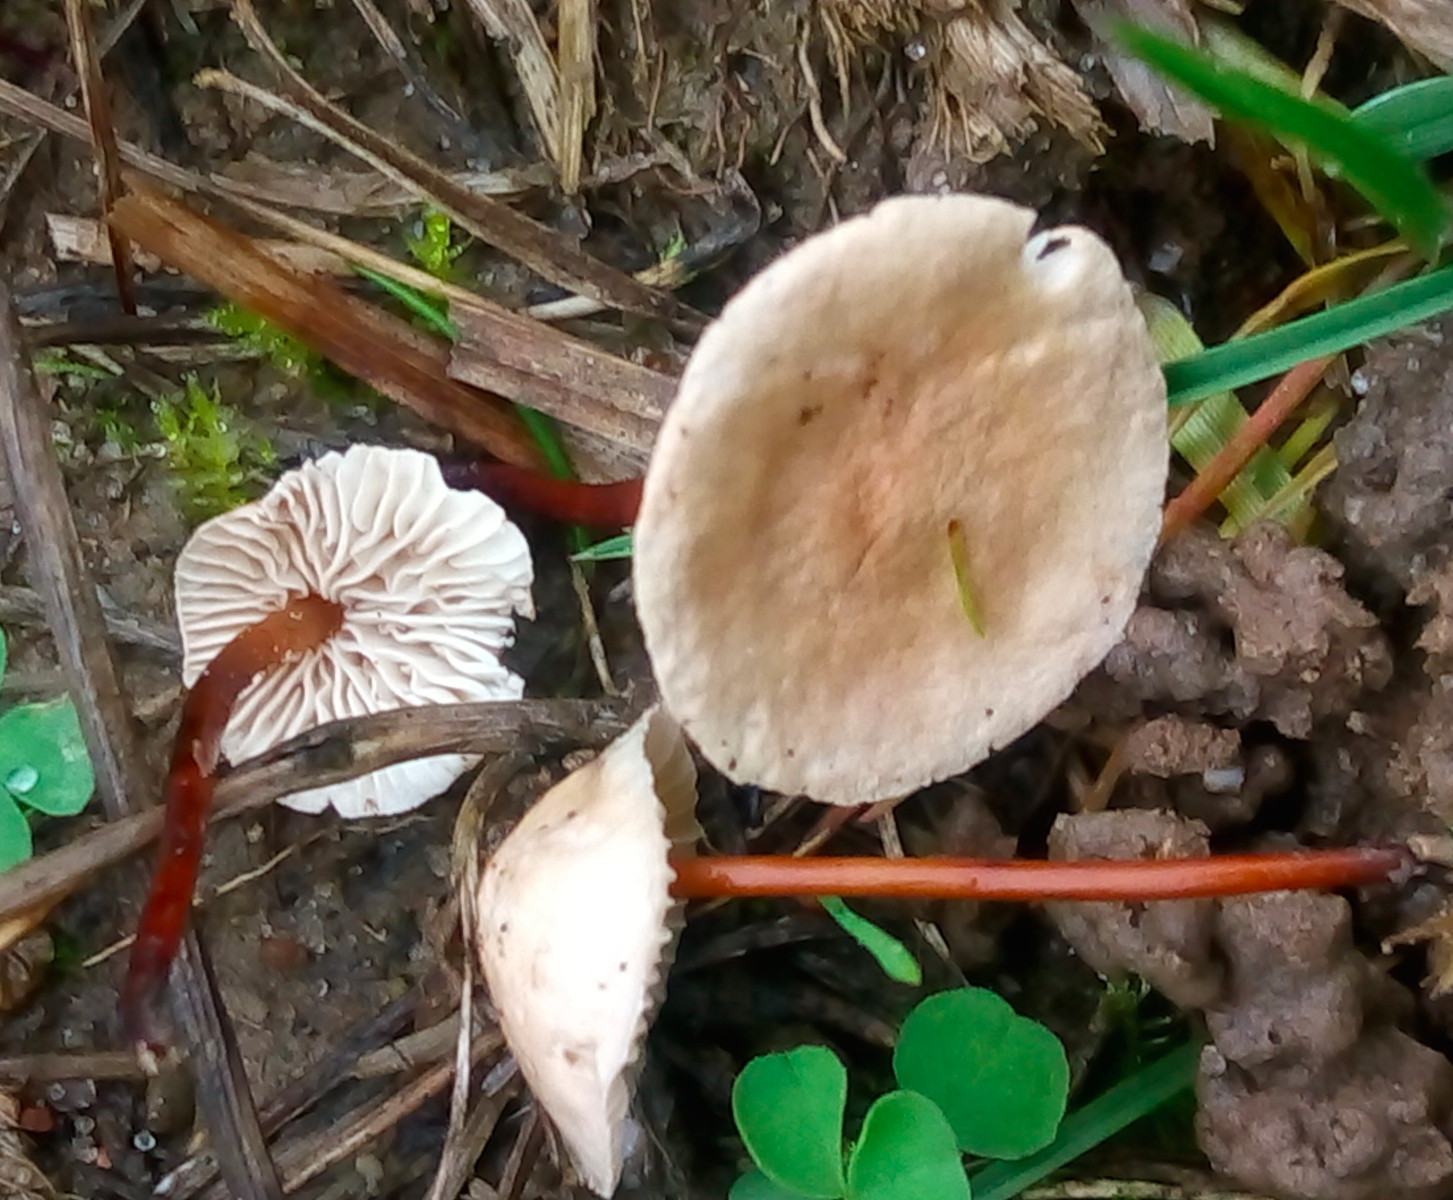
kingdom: Fungi
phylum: Basidiomycota
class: Agaricomycetes
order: Agaricales
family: Omphalotaceae
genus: Mycetinis
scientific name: Mycetinis scorodonius
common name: lille løghat
